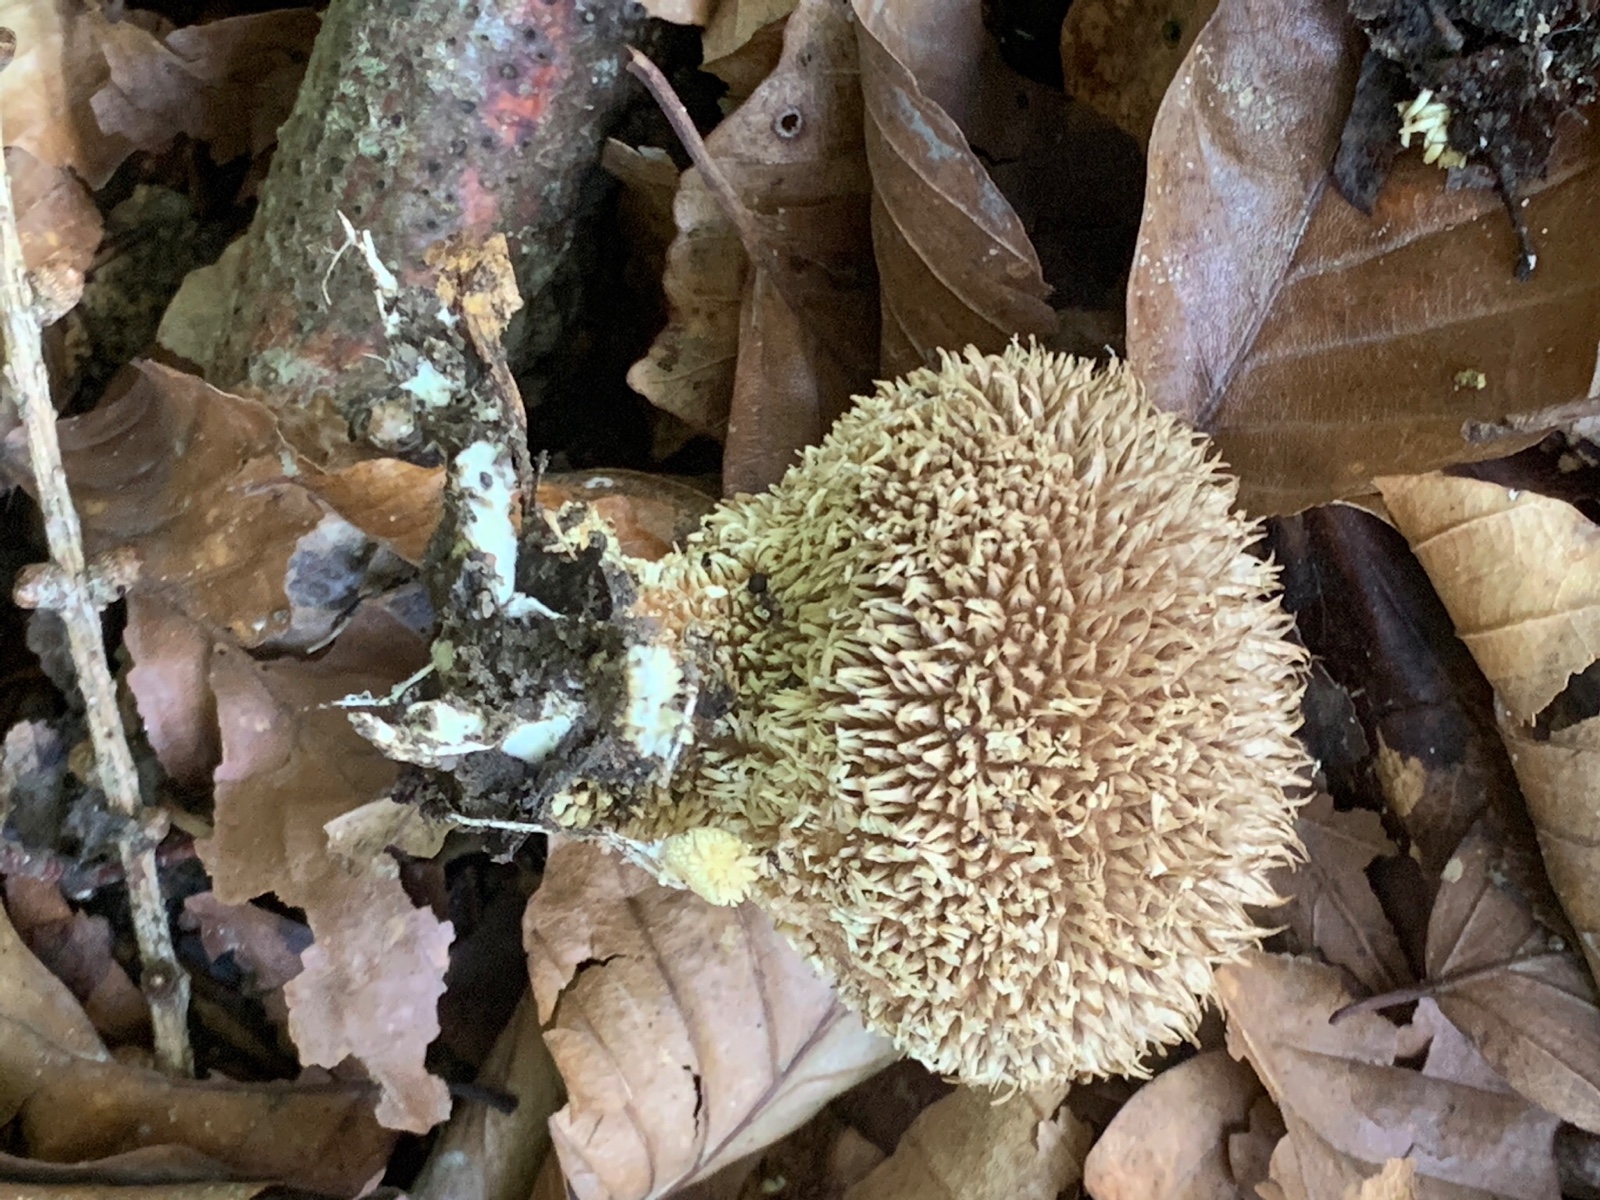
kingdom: Fungi
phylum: Basidiomycota
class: Agaricomycetes
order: Agaricales
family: Lycoperdaceae
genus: Lycoperdon
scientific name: Lycoperdon echinatum
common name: pindsvine-støvbold
